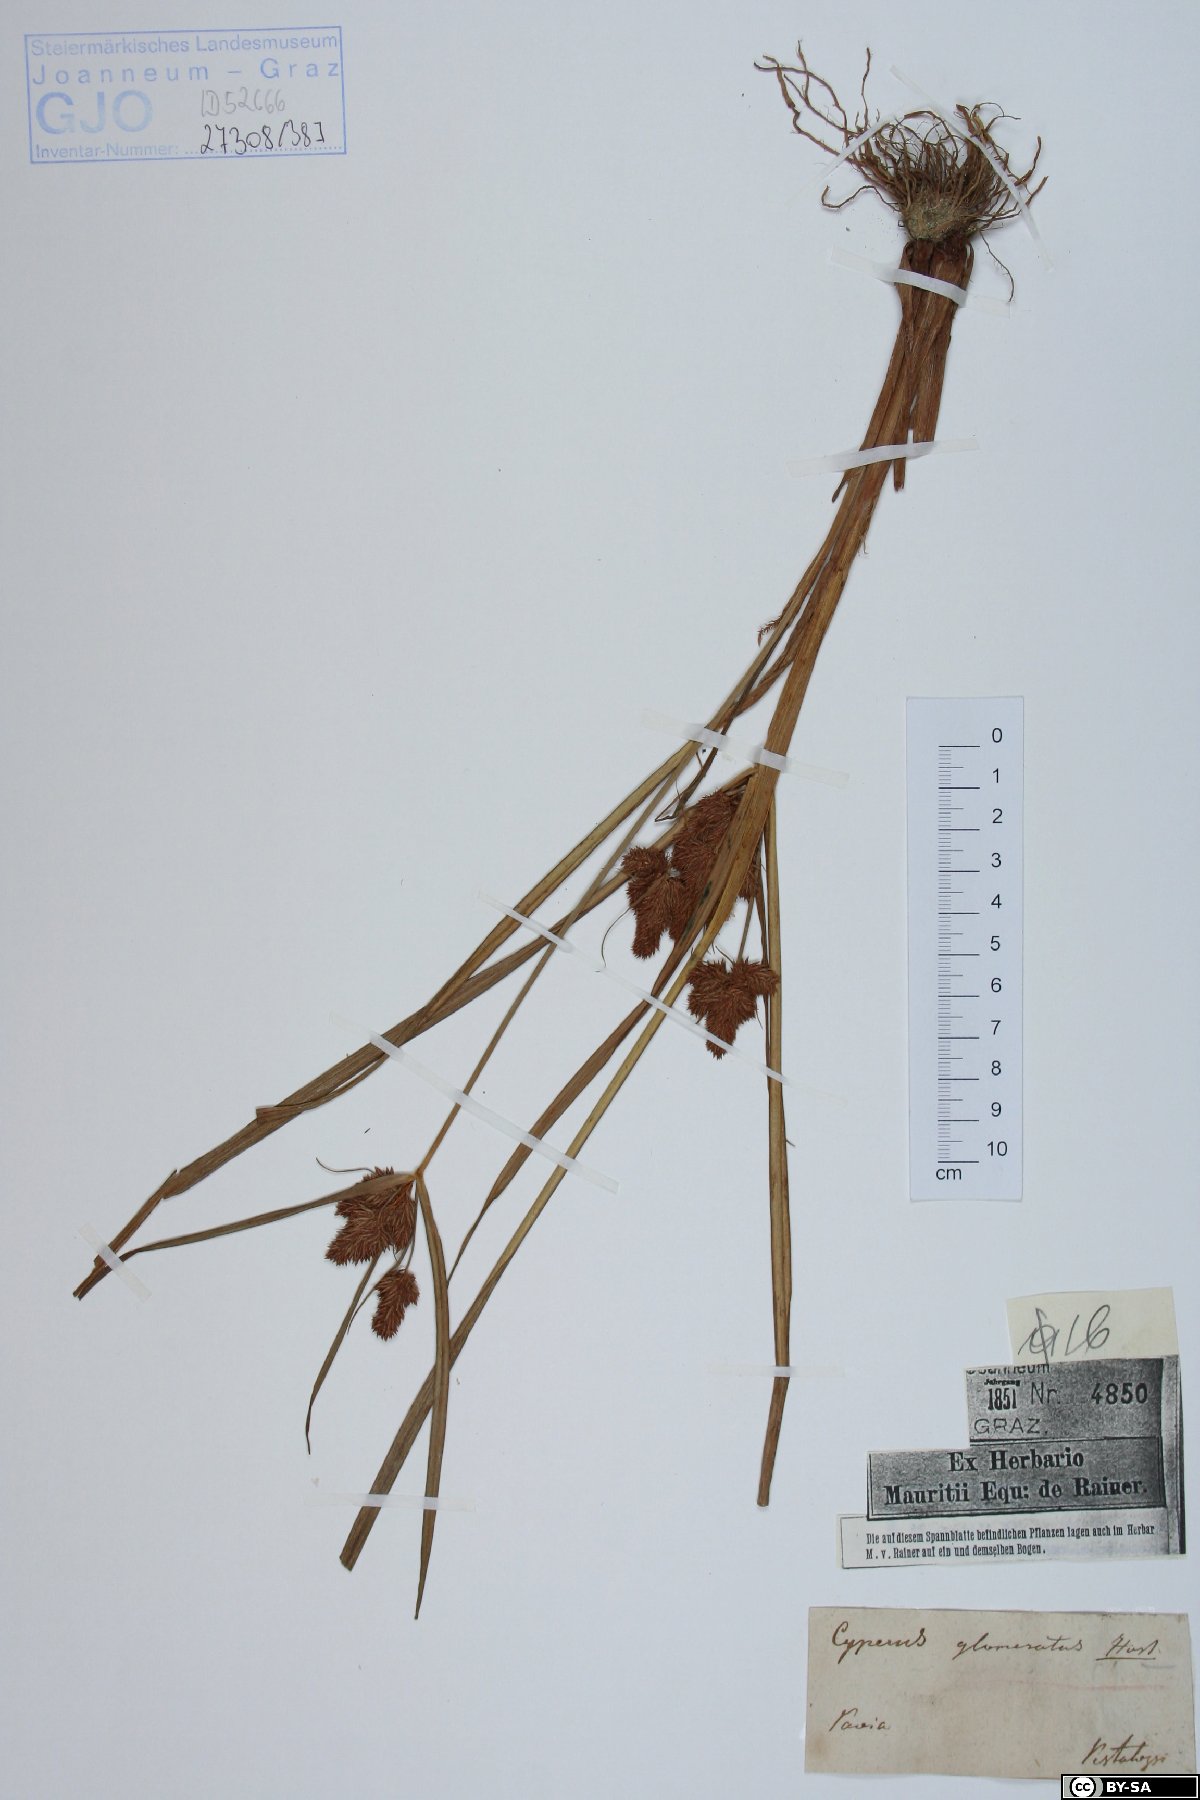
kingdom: Plantae
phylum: Tracheophyta
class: Liliopsida
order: Poales
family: Cyperaceae
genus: Cyperus
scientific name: Cyperus glomeratus
